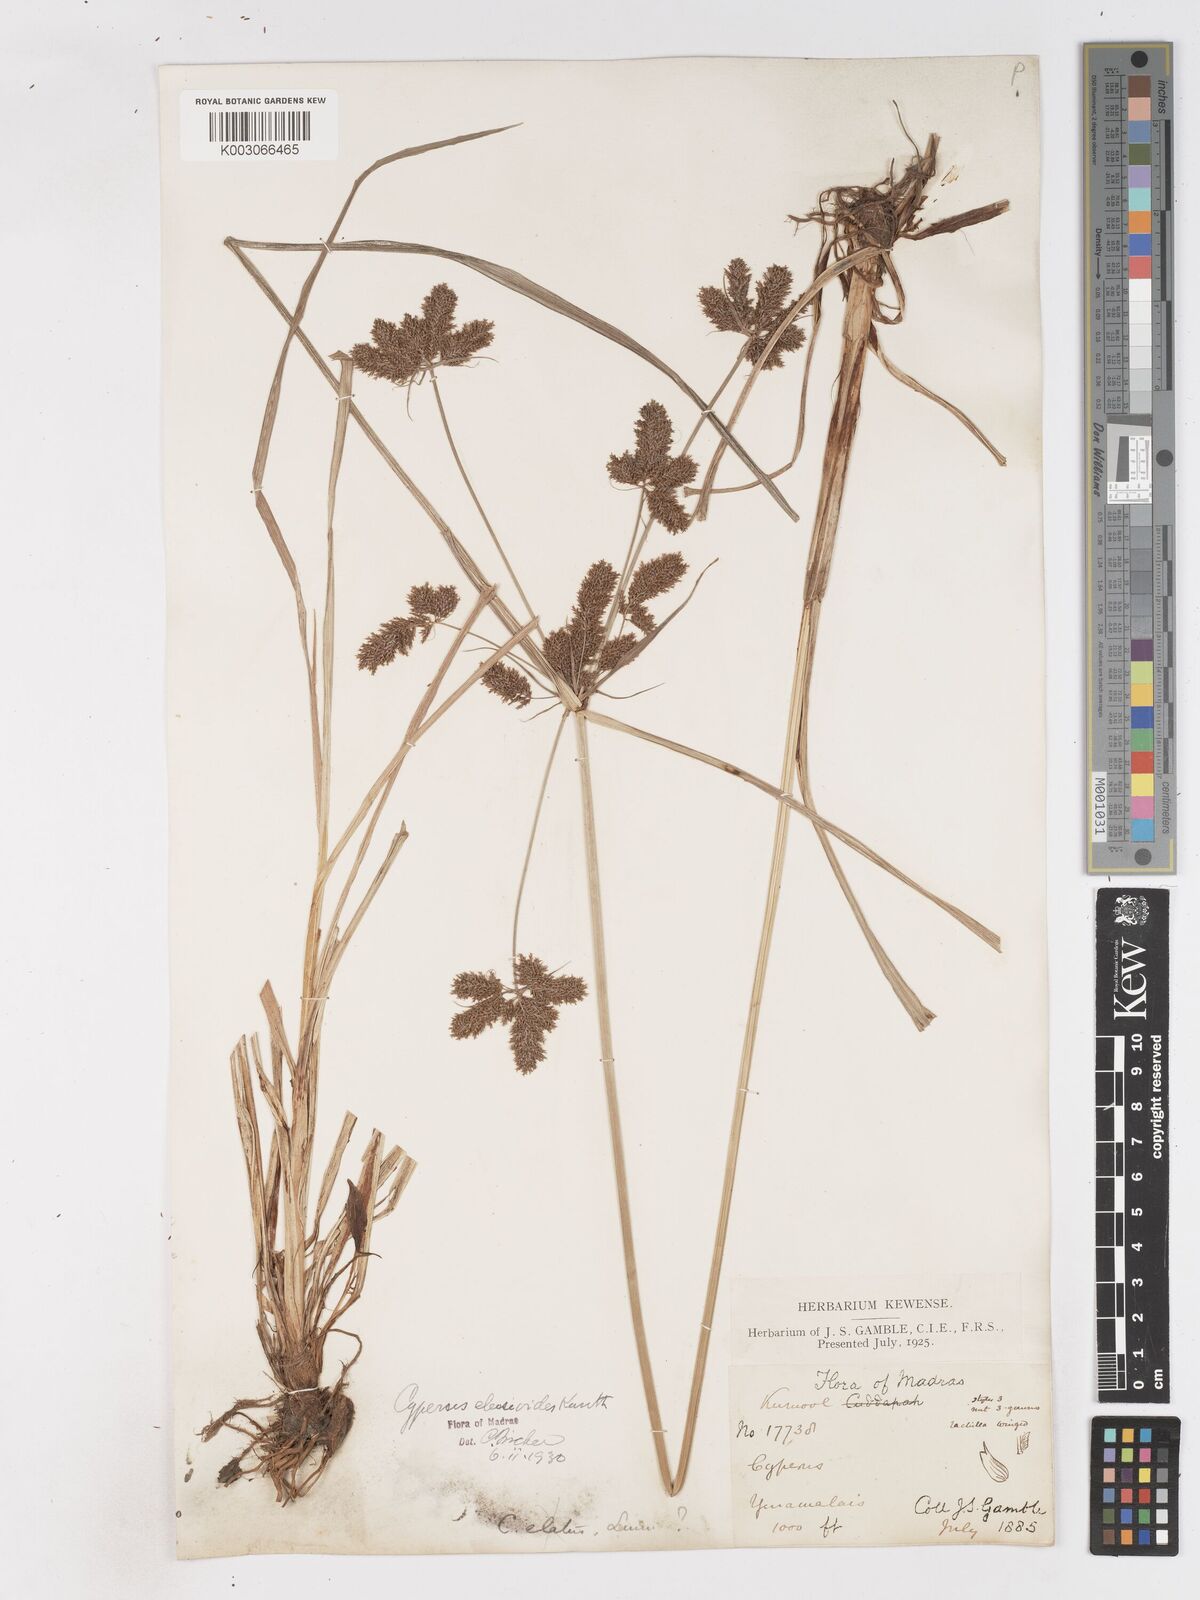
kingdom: Plantae
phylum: Tracheophyta
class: Liliopsida
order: Poales
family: Cyperaceae
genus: Cyperus
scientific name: Cyperus nutans
